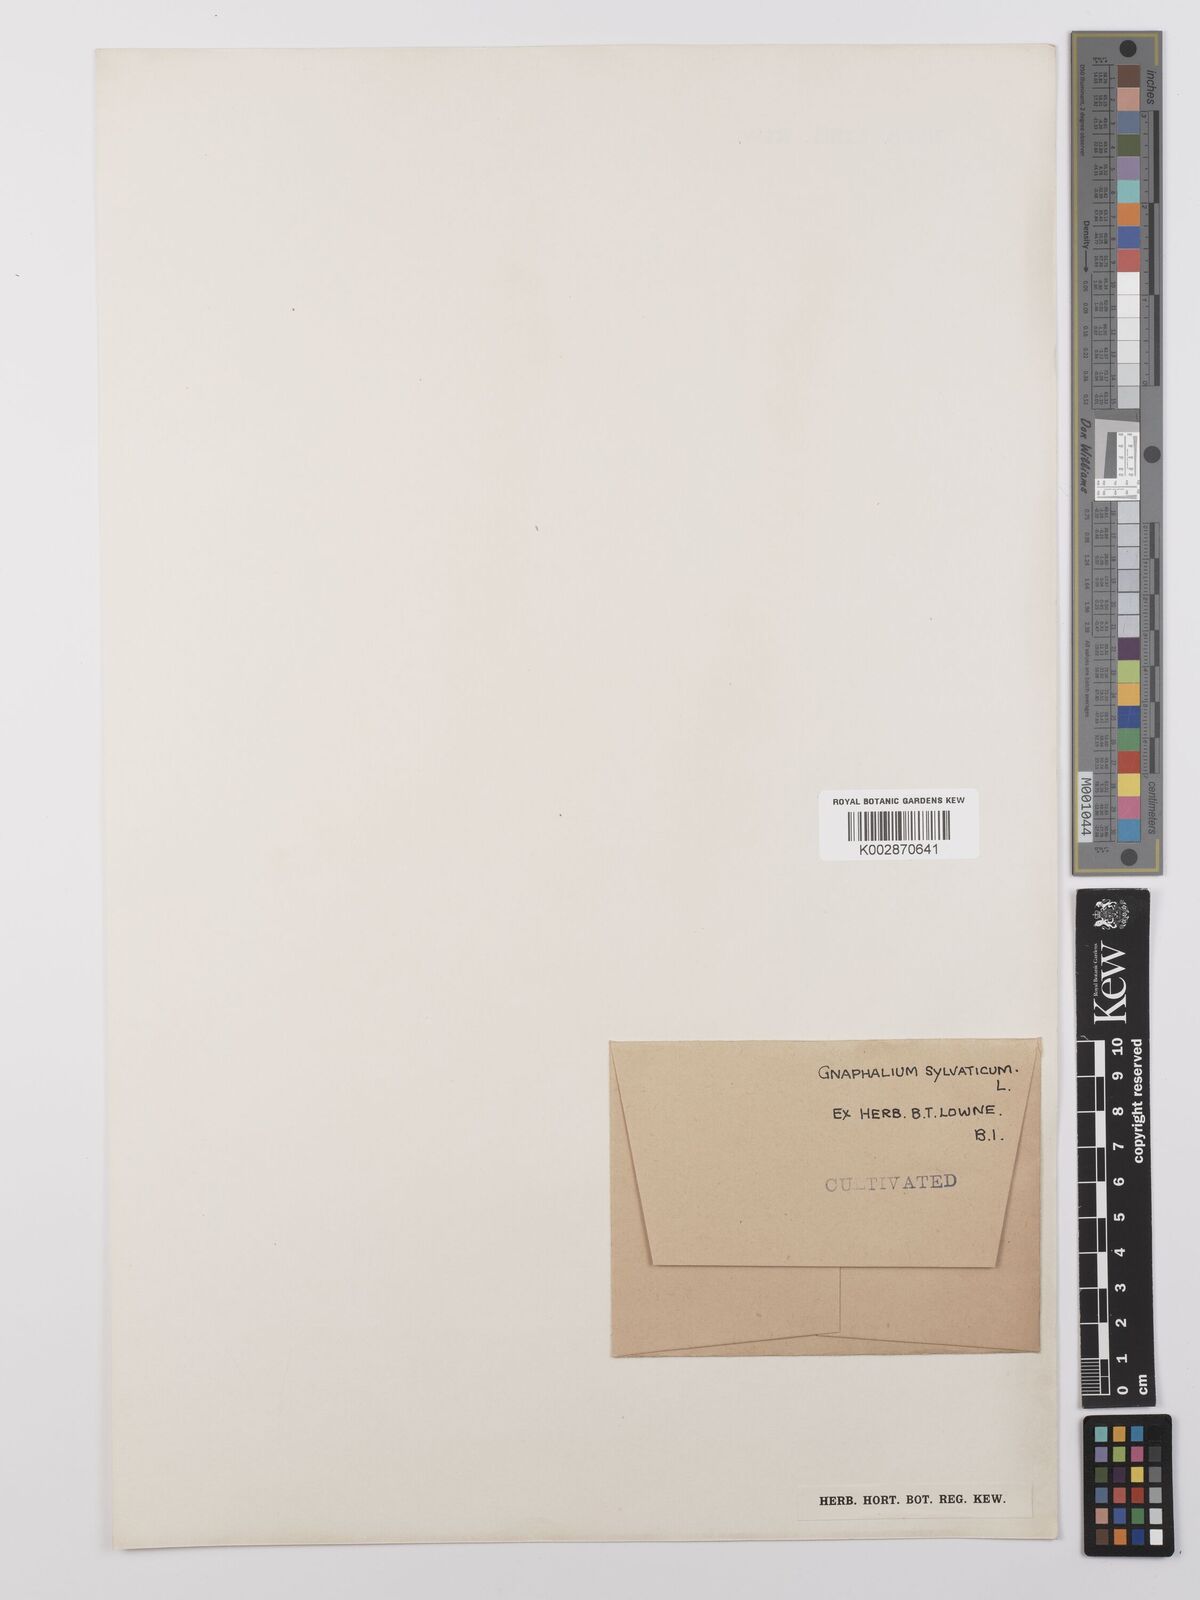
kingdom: Plantae
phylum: Tracheophyta
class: Magnoliopsida
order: Asterales
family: Asteraceae
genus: Omalotheca
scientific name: Omalotheca sylvatica
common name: Heath cudweed
